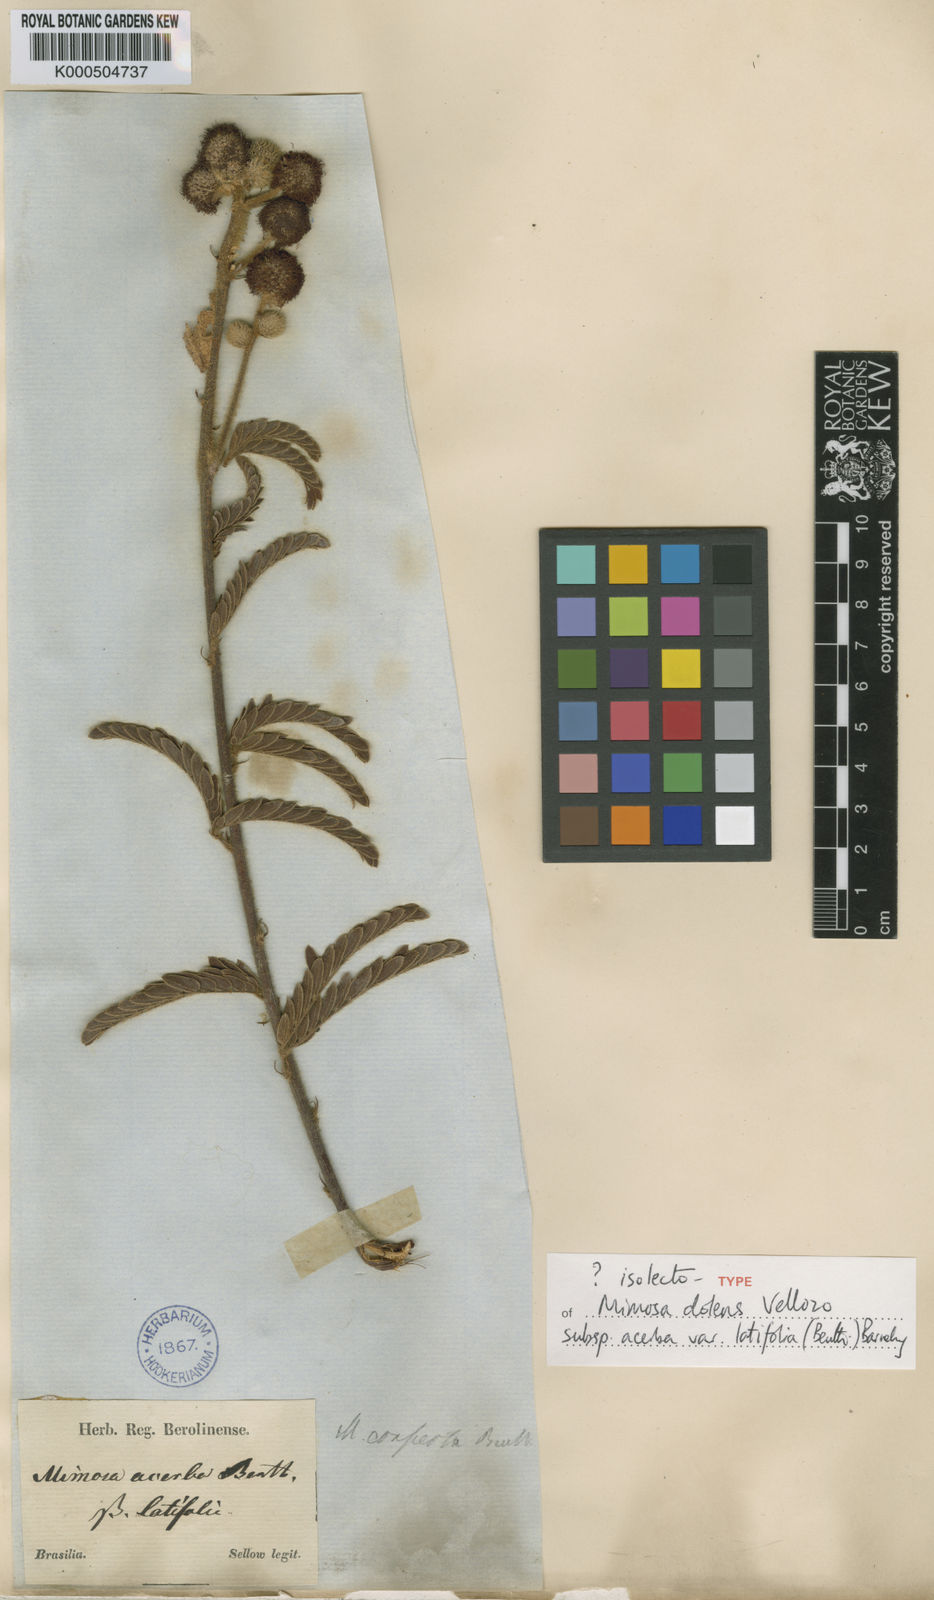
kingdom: Plantae
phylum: Tracheophyta
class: Magnoliopsida
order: Fabales
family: Fabaceae
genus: Mimosa
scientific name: Mimosa dolens
